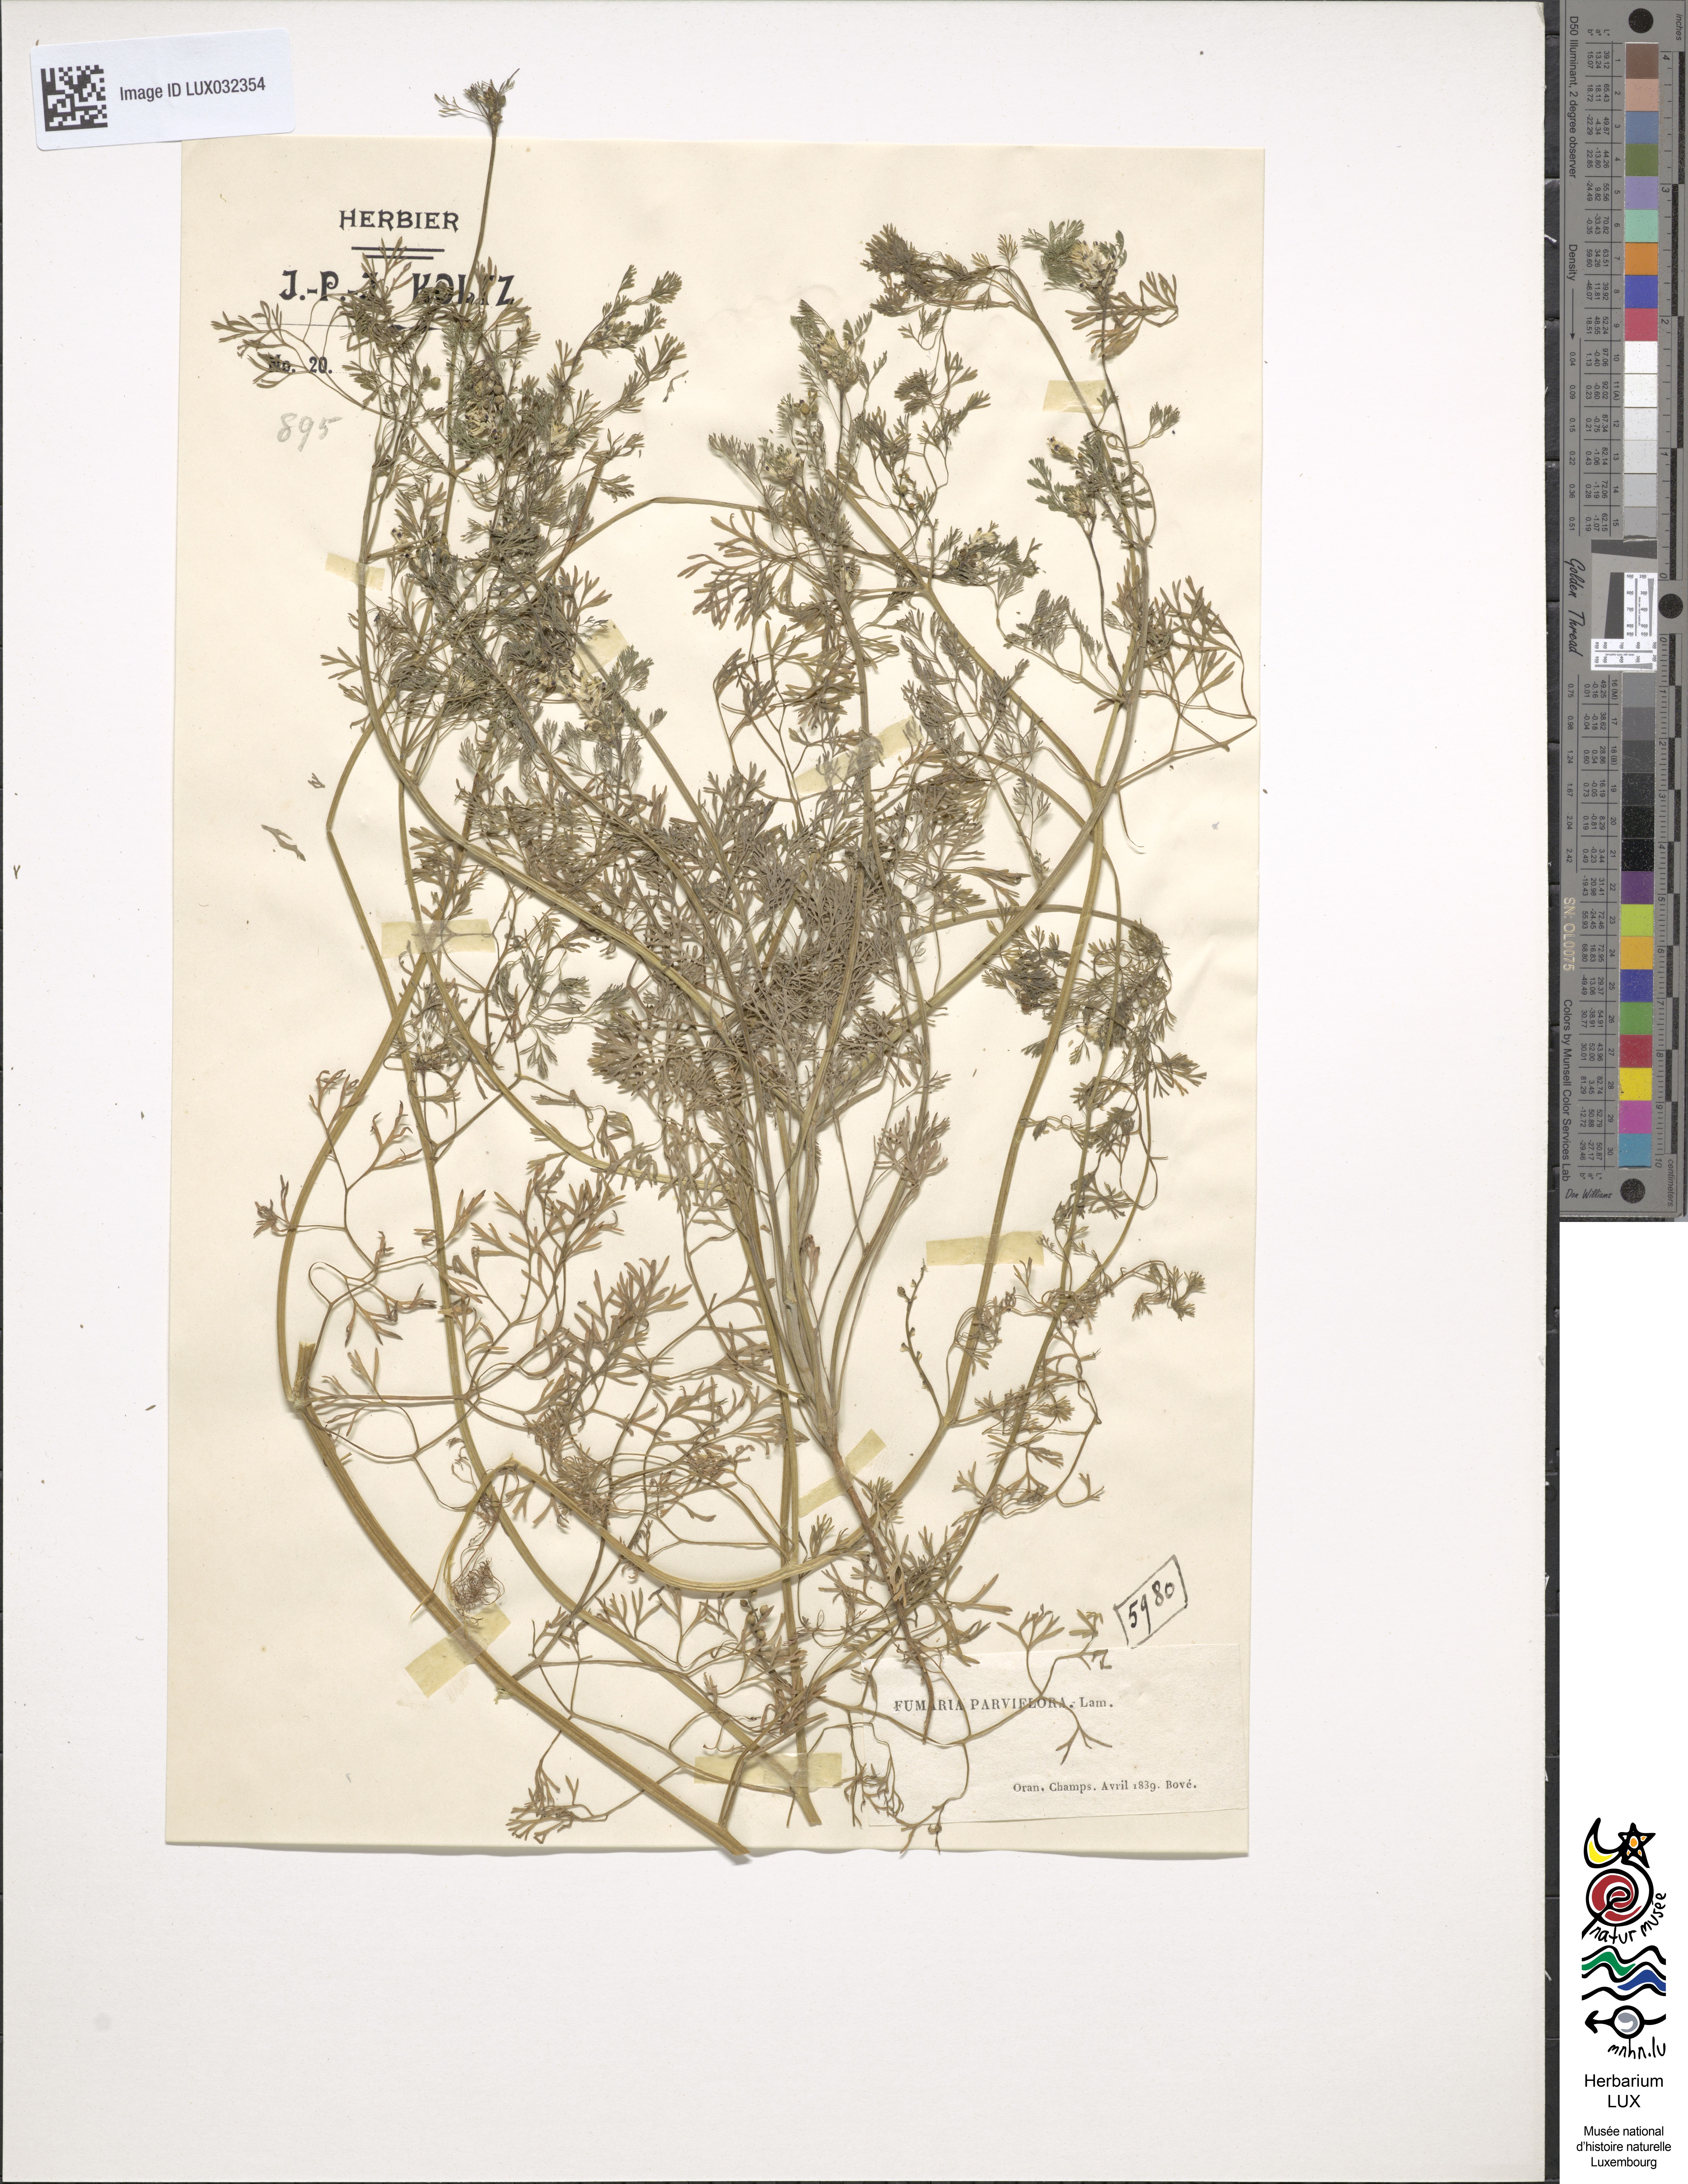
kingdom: Plantae
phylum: Tracheophyta
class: Magnoliopsida
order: Ranunculales
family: Papaveraceae
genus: Fumaria
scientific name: Fumaria parviflora
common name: Fine-leaved fumitory
